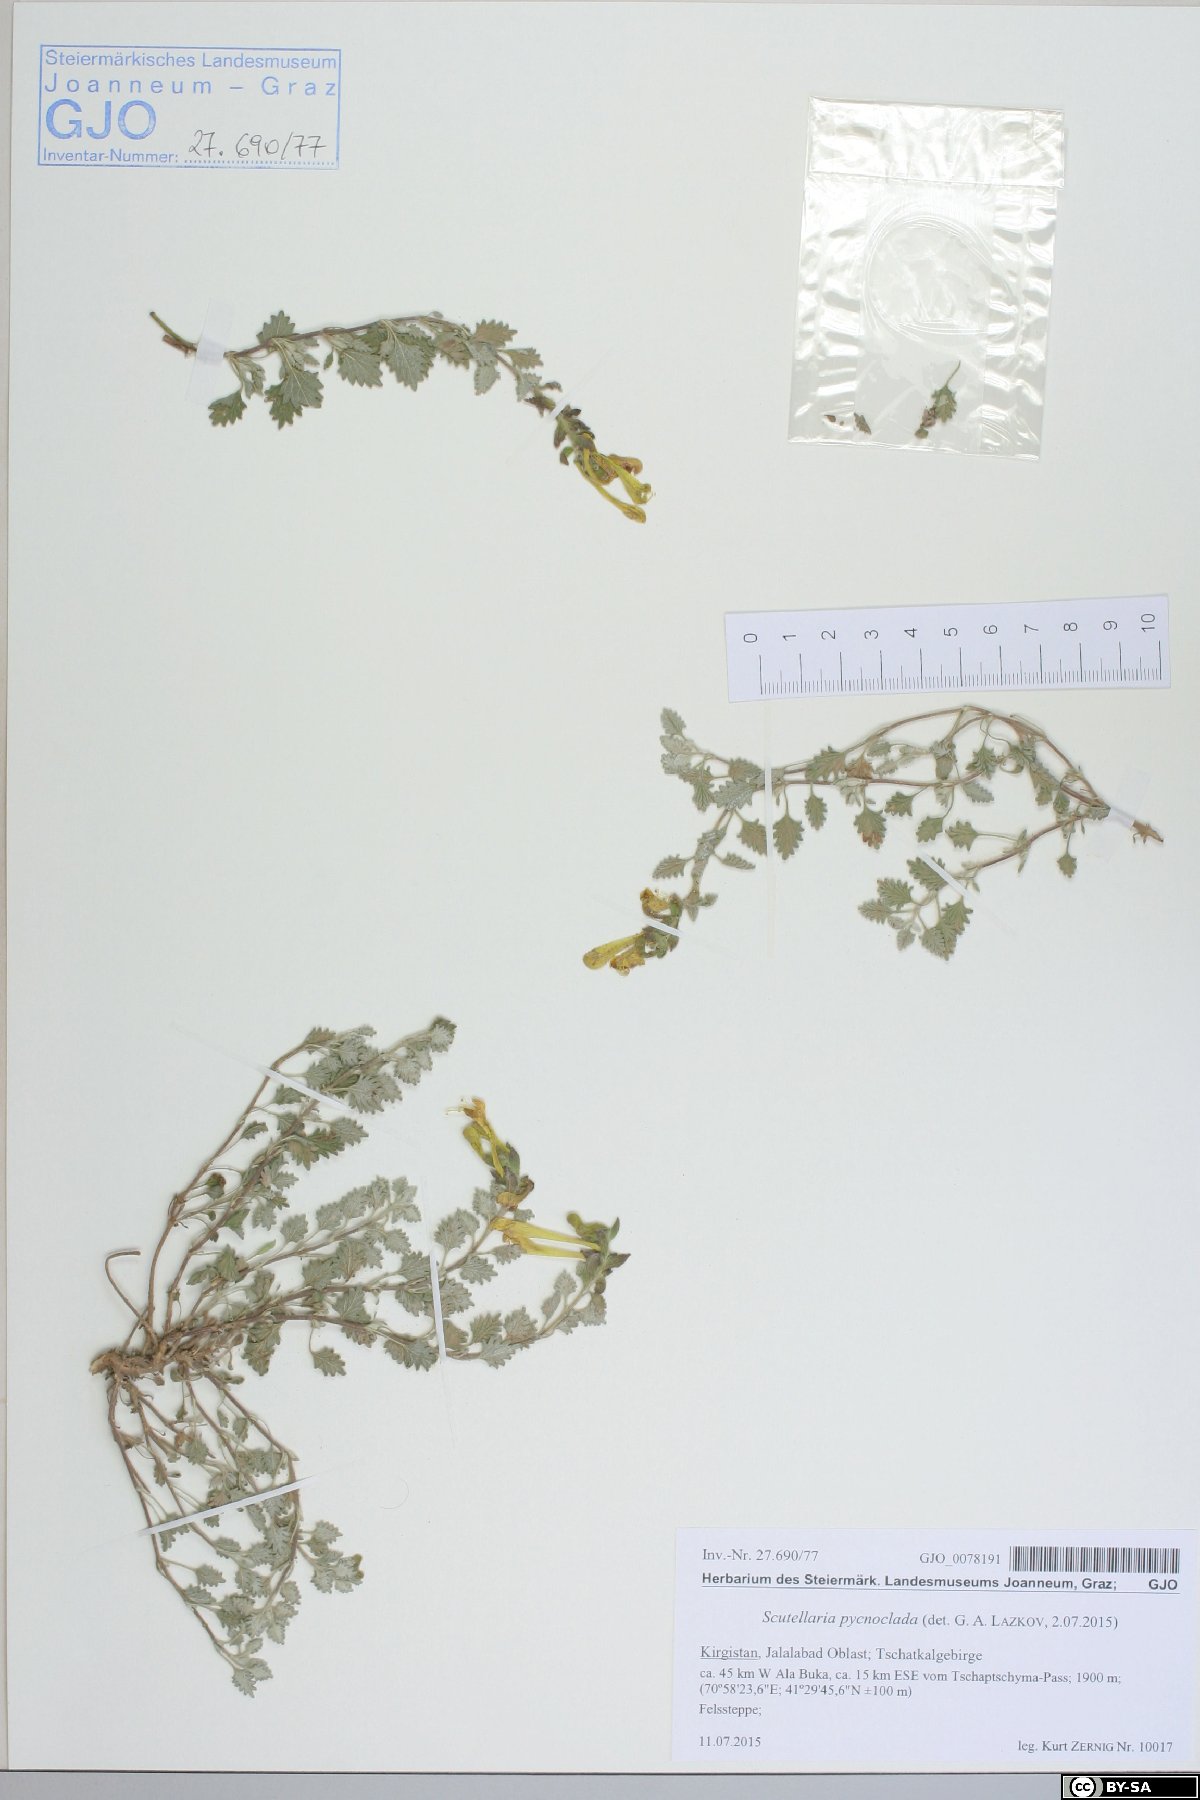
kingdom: Plantae
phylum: Tracheophyta
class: Magnoliopsida
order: Lamiales
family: Lamiaceae
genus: Scutellaria
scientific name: Scutellaria pycnoclada
